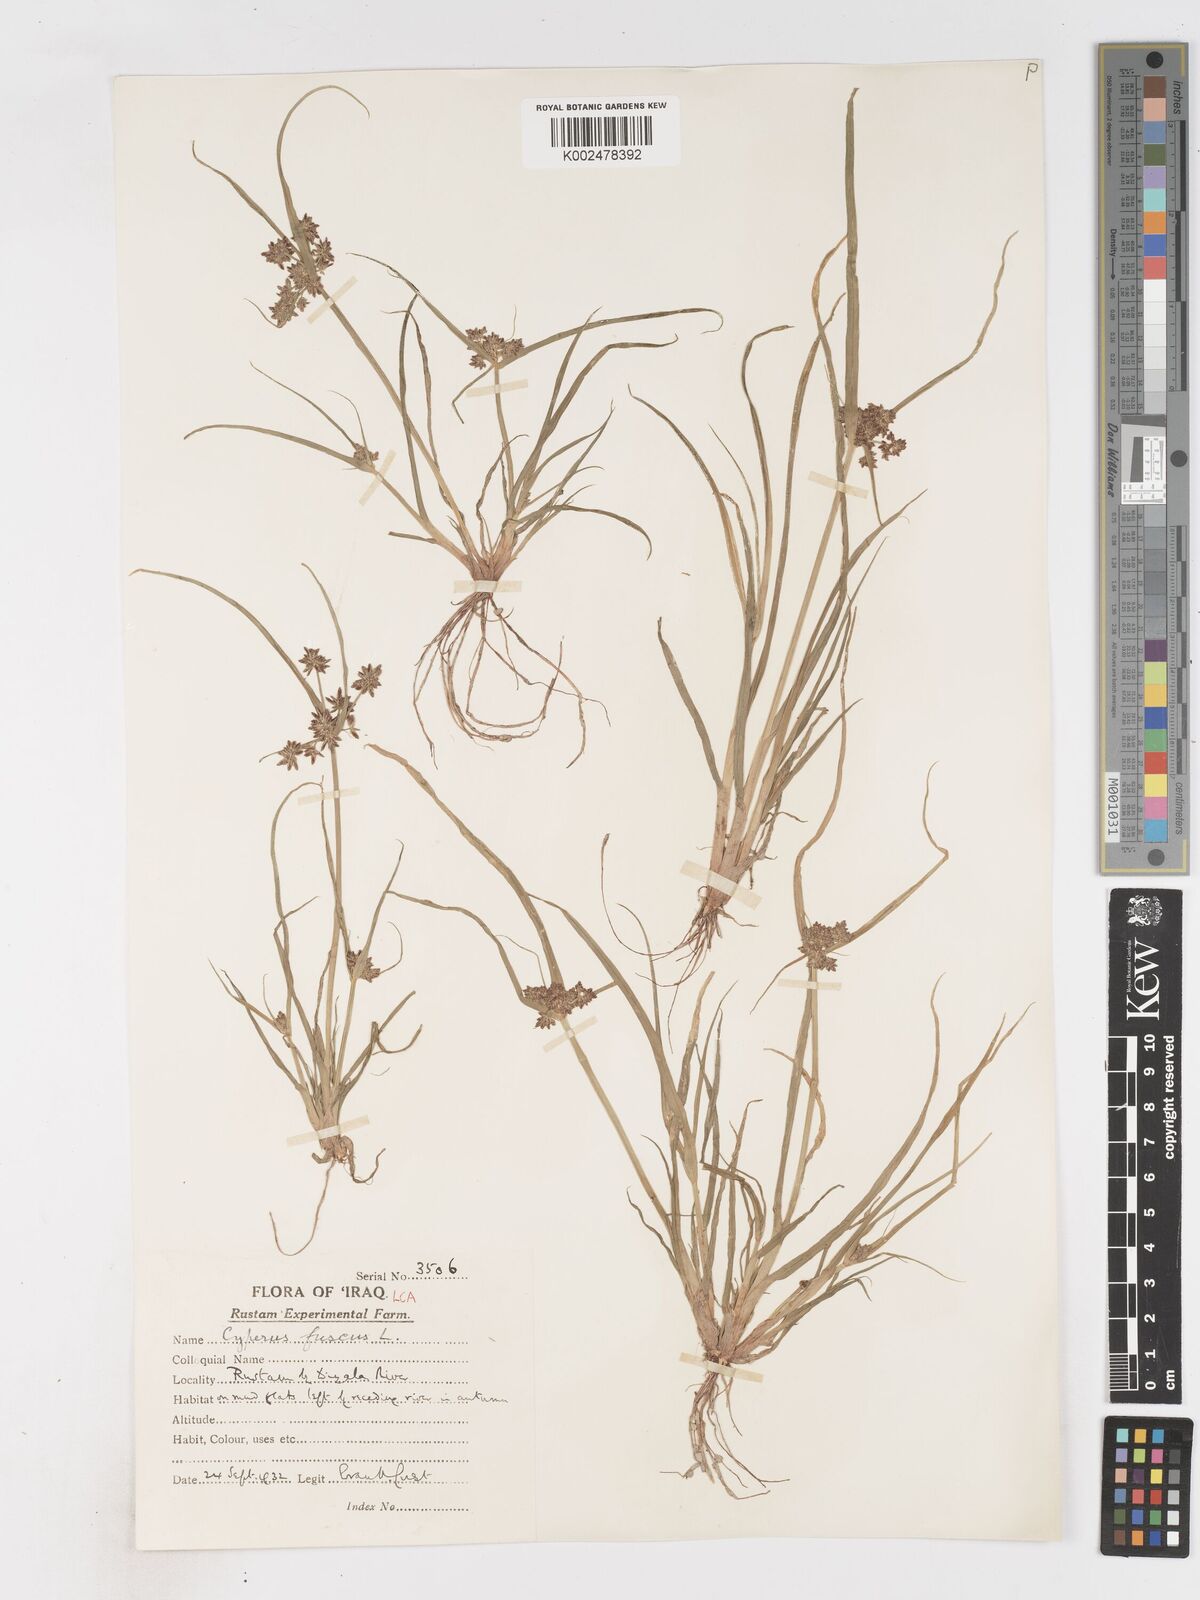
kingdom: Plantae
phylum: Tracheophyta
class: Liliopsida
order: Poales
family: Cyperaceae
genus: Cyperus
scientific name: Cyperus fuscus
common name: Brown galingale
